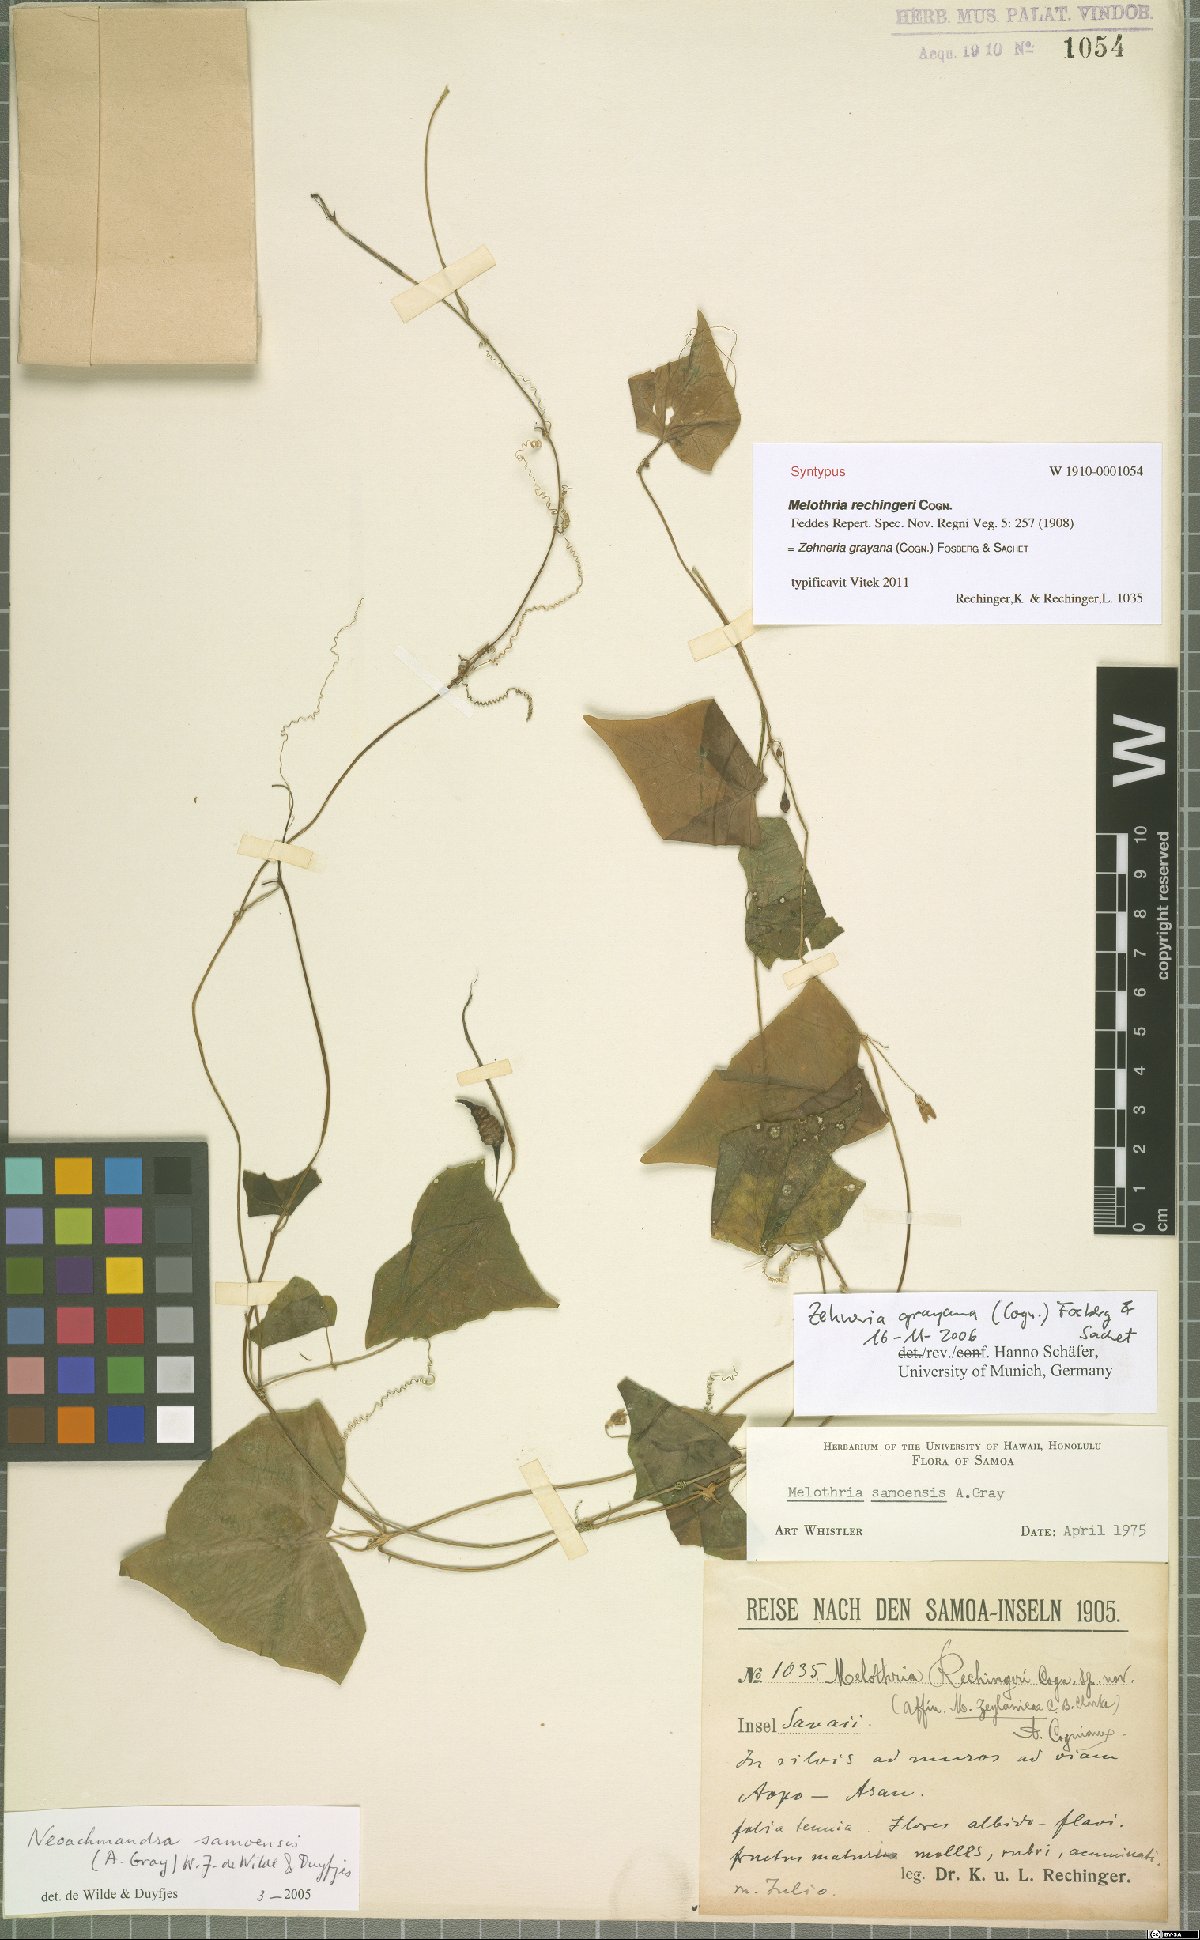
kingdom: Plantae
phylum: Tracheophyta
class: Magnoliopsida
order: Cucurbitales
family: Cucurbitaceae
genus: Zehneria
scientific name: Zehneria mucronata
